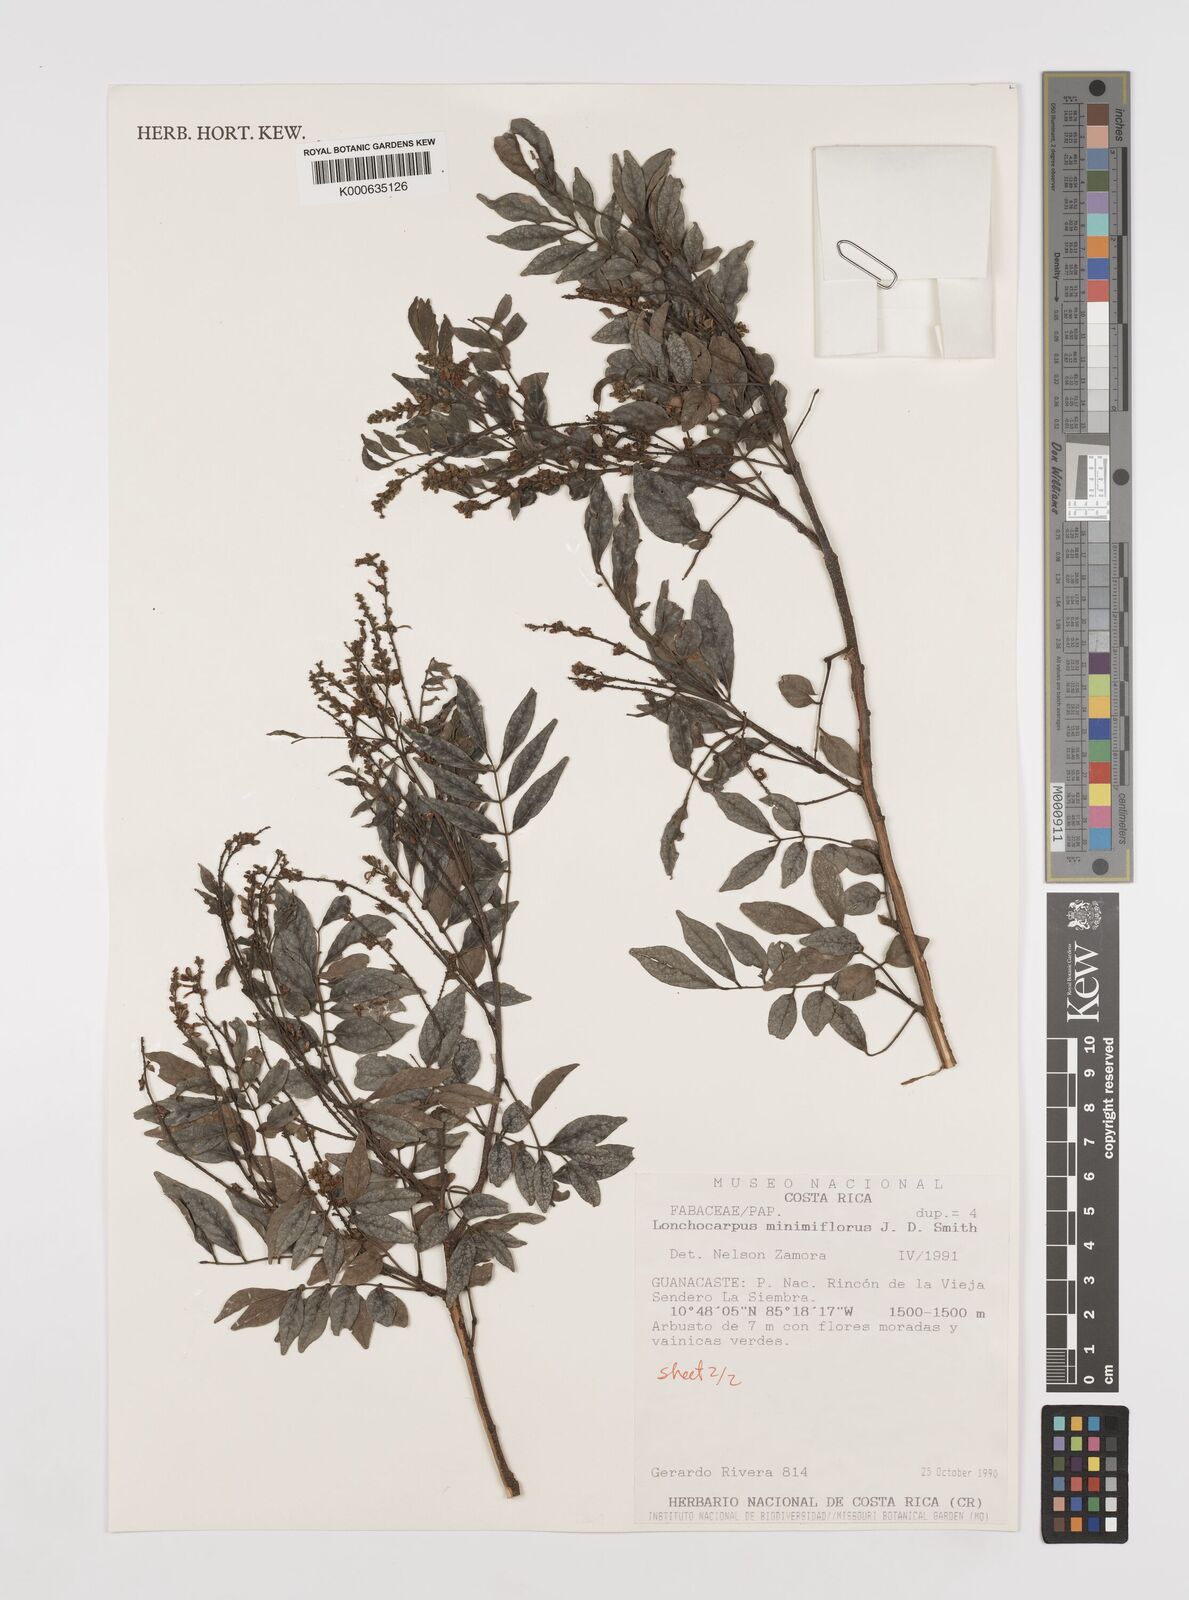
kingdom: Plantae
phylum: Tracheophyta
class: Magnoliopsida
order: Fabales
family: Fabaceae
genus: Lonchocarpus
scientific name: Lonchocarpus minimiflorus
